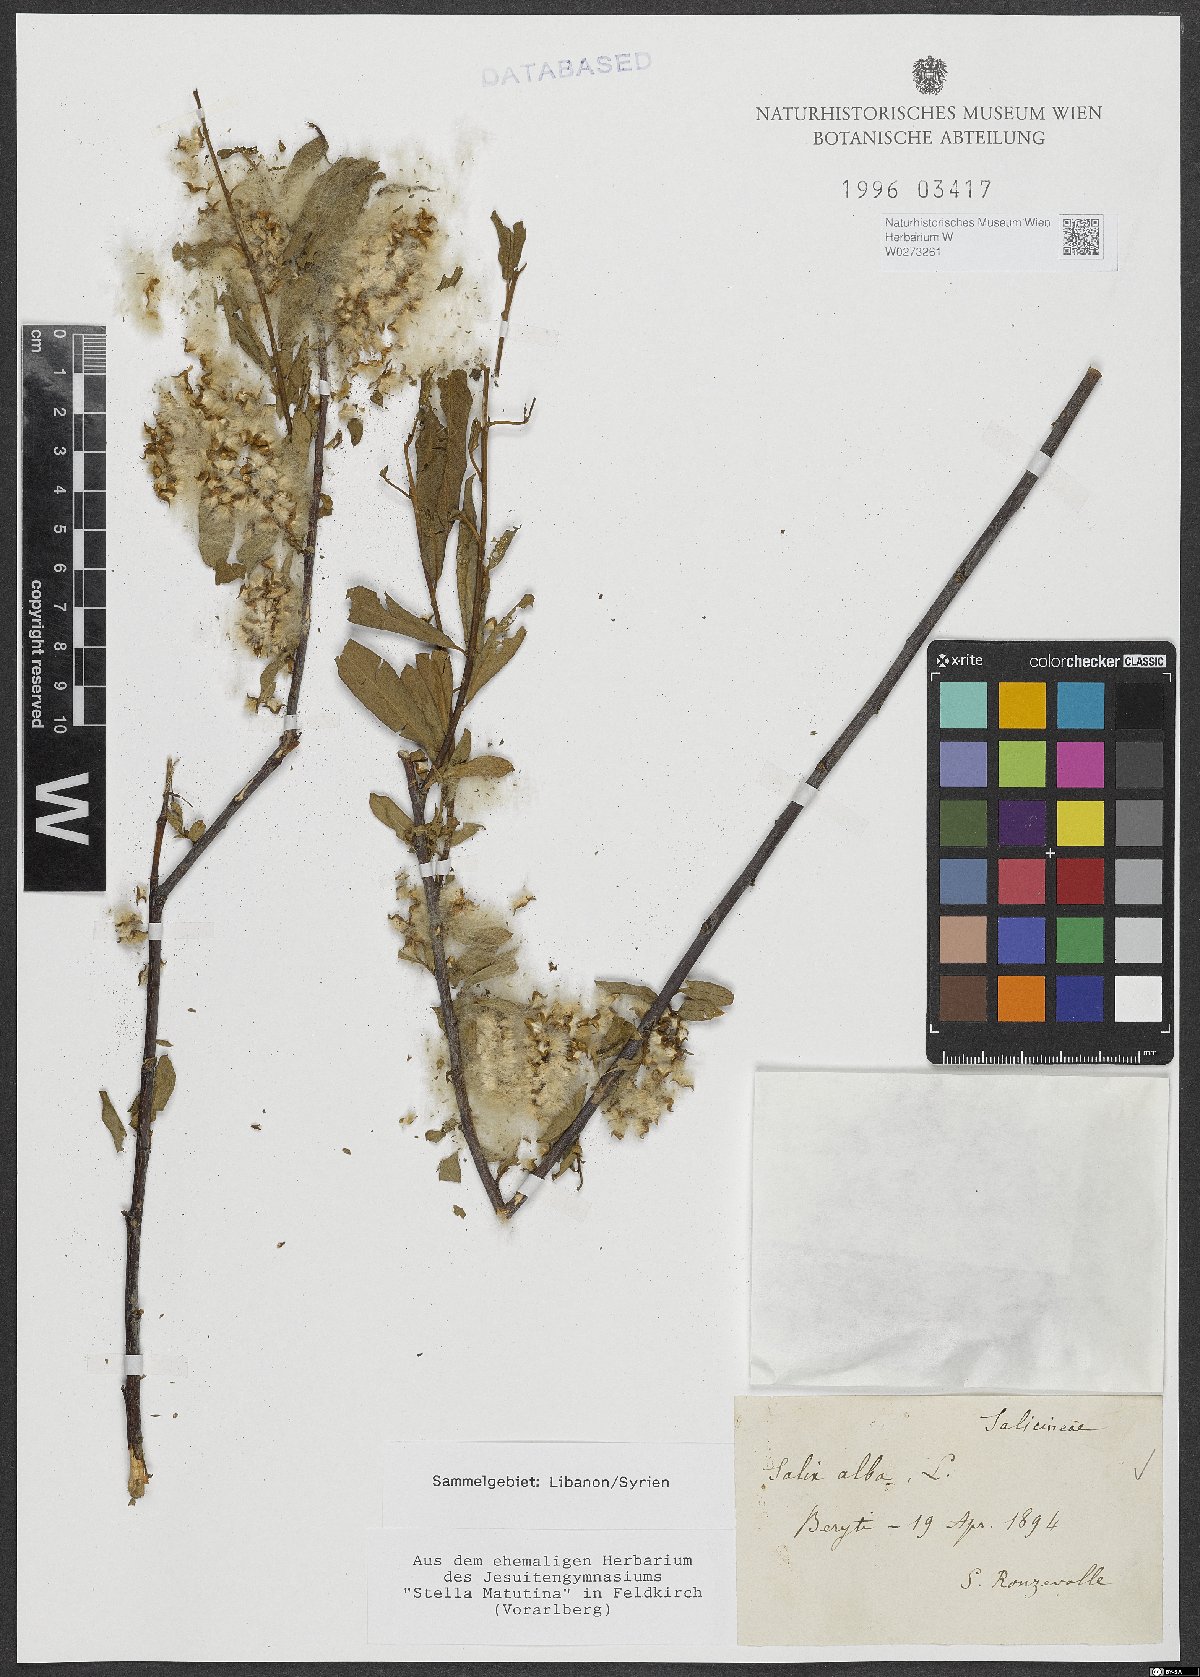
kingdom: Plantae
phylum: Tracheophyta
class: Magnoliopsida
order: Malpighiales
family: Salicaceae
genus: Salix
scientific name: Salix alba
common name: White willow
